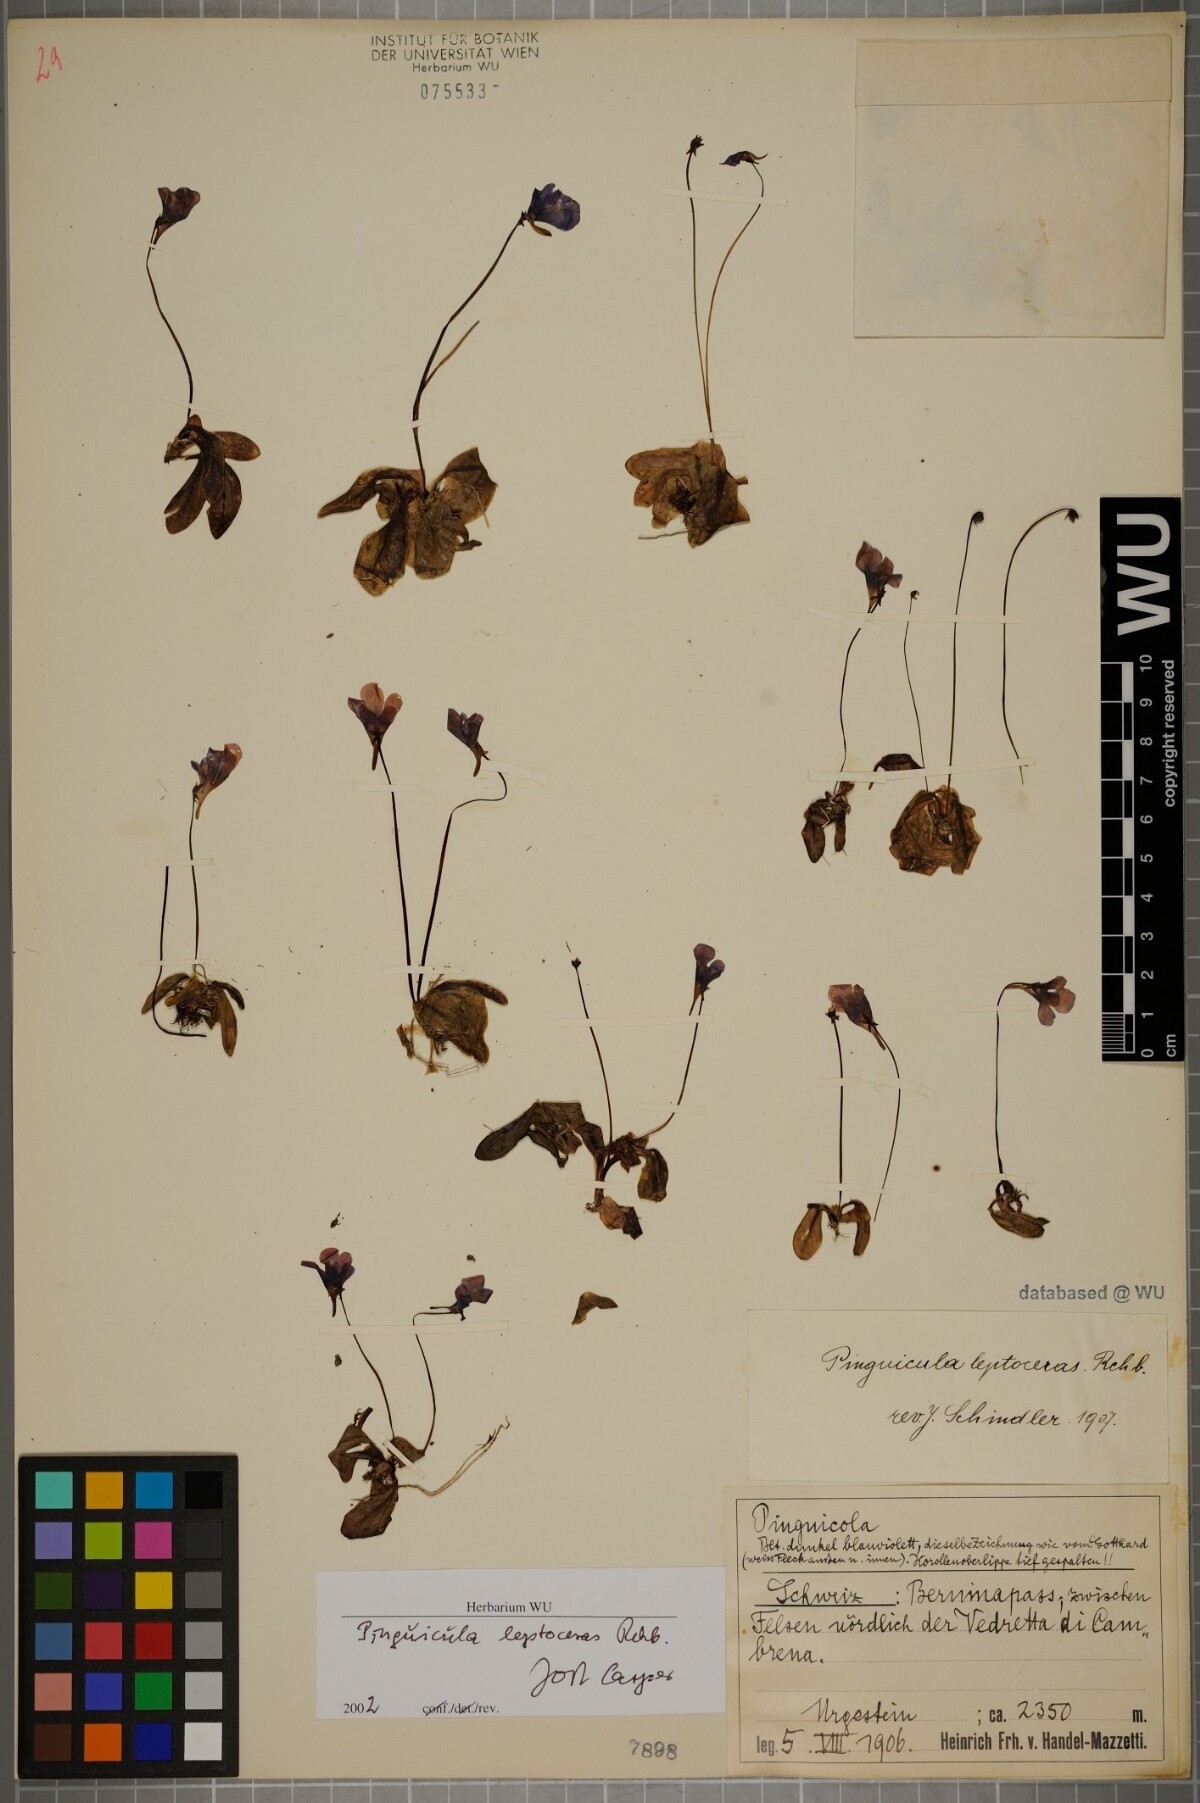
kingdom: Plantae
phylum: Tracheophyta
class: Magnoliopsida
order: Lamiales
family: Lentibulariaceae
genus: Pinguicula
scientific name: Pinguicula leptoceras
